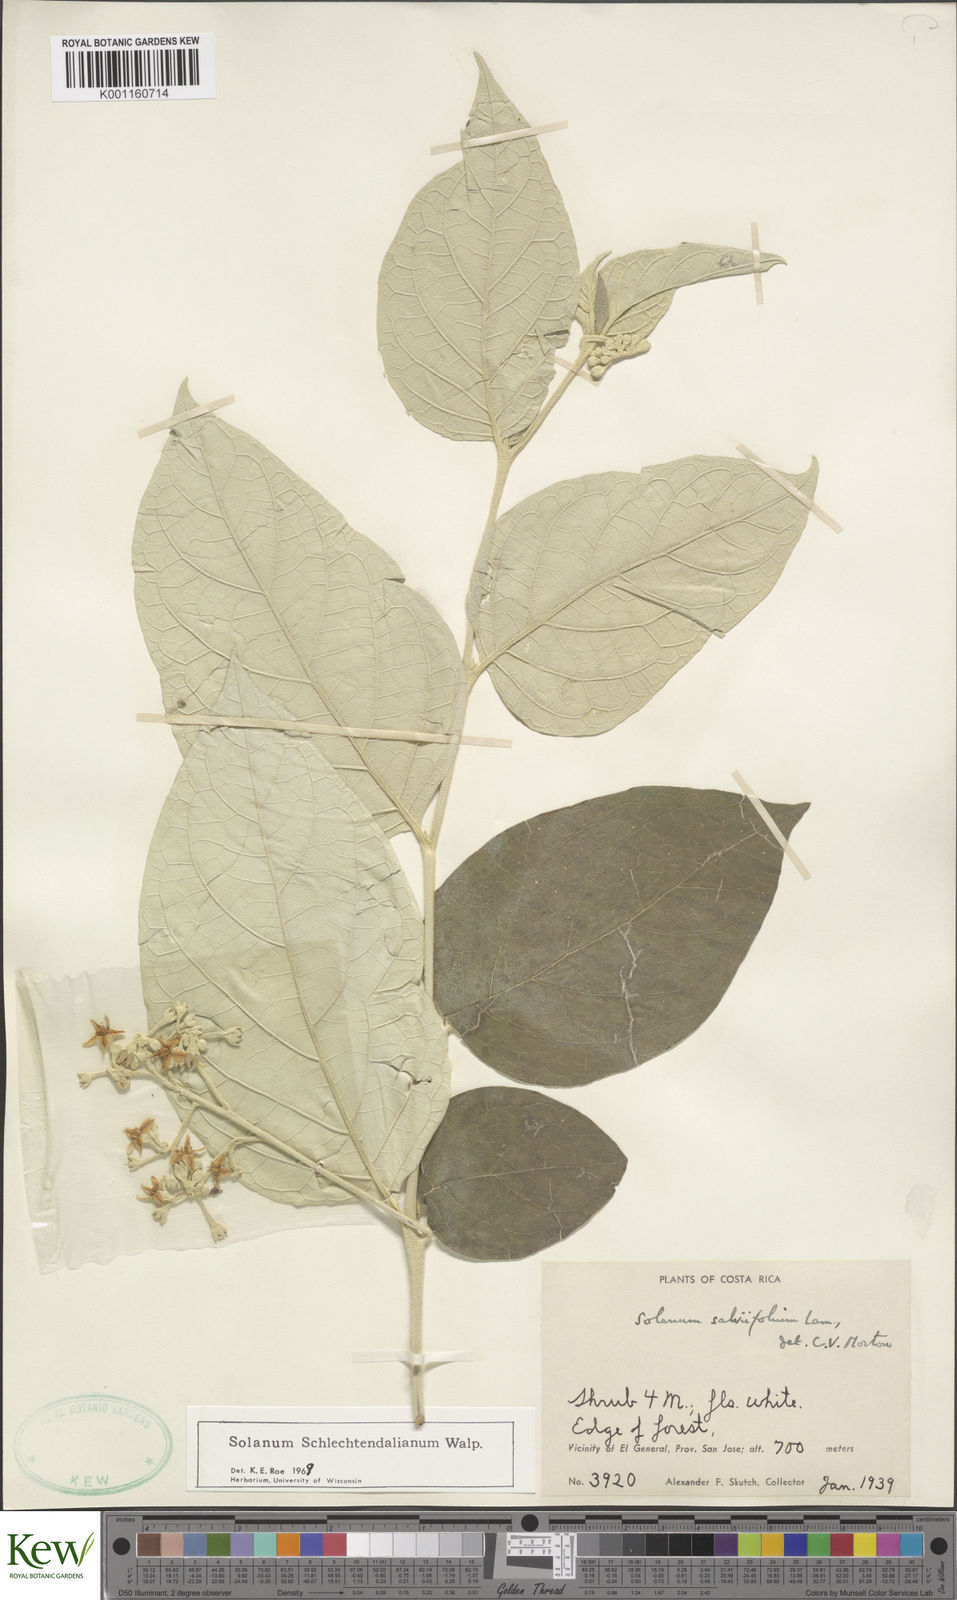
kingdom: Plantae
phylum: Tracheophyta
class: Magnoliopsida
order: Solanales
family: Solanaceae
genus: Solanum
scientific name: Solanum schlechtendalianum
